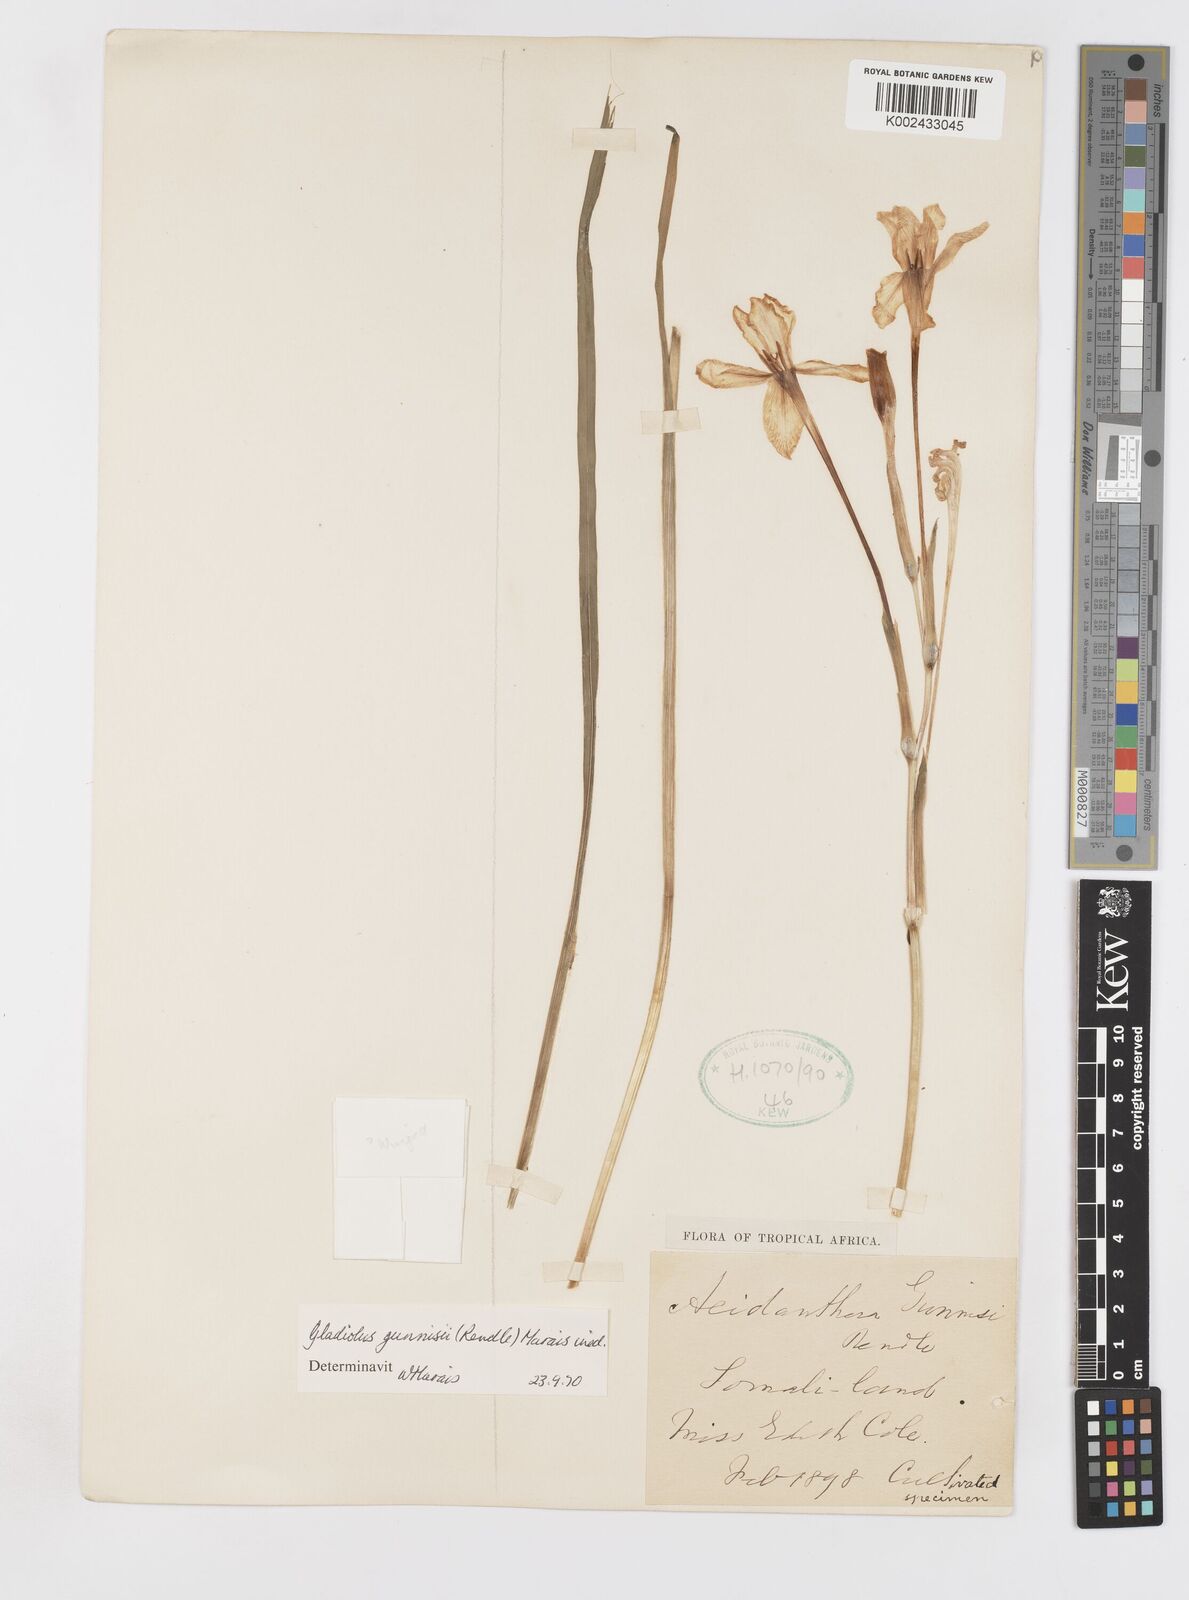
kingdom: Plantae
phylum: Tracheophyta
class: Liliopsida
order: Asparagales
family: Iridaceae
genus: Gladiolus
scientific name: Gladiolus gunnisii
